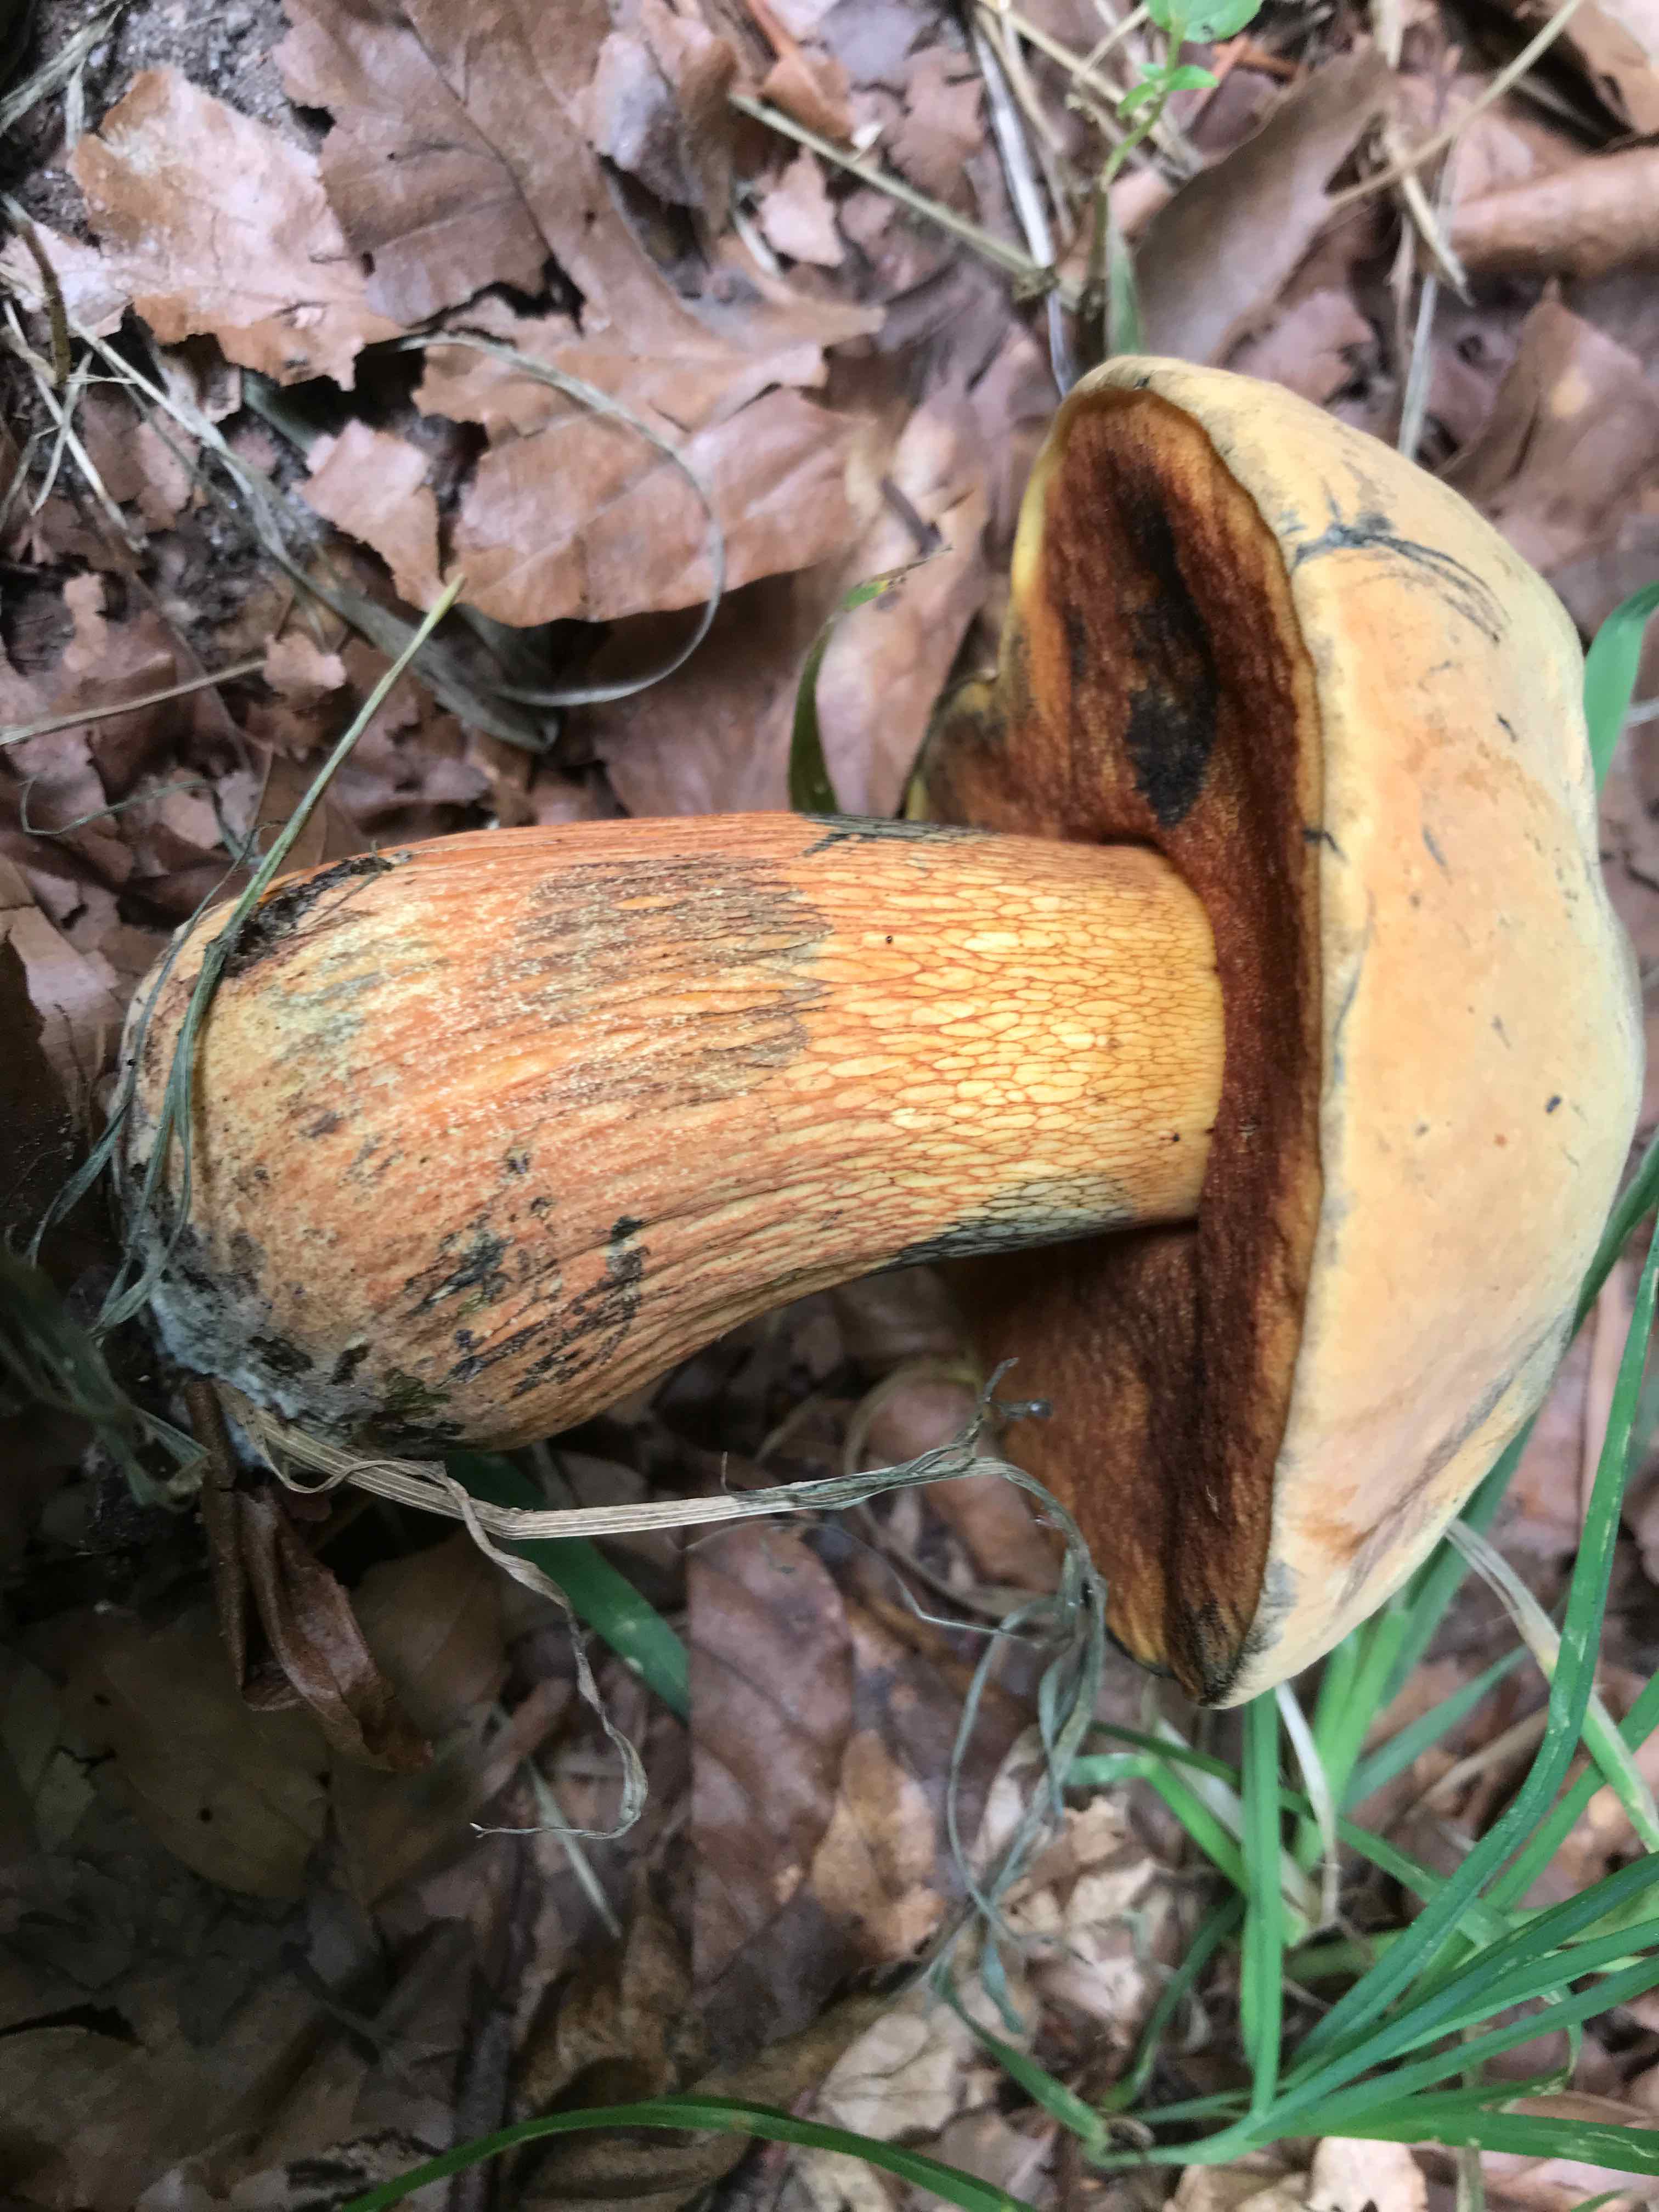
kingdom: Fungi
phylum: Basidiomycota
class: Agaricomycetes
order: Boletales
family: Boletaceae
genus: Suillellus
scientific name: Suillellus luridus
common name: netstokket indigorørhat
